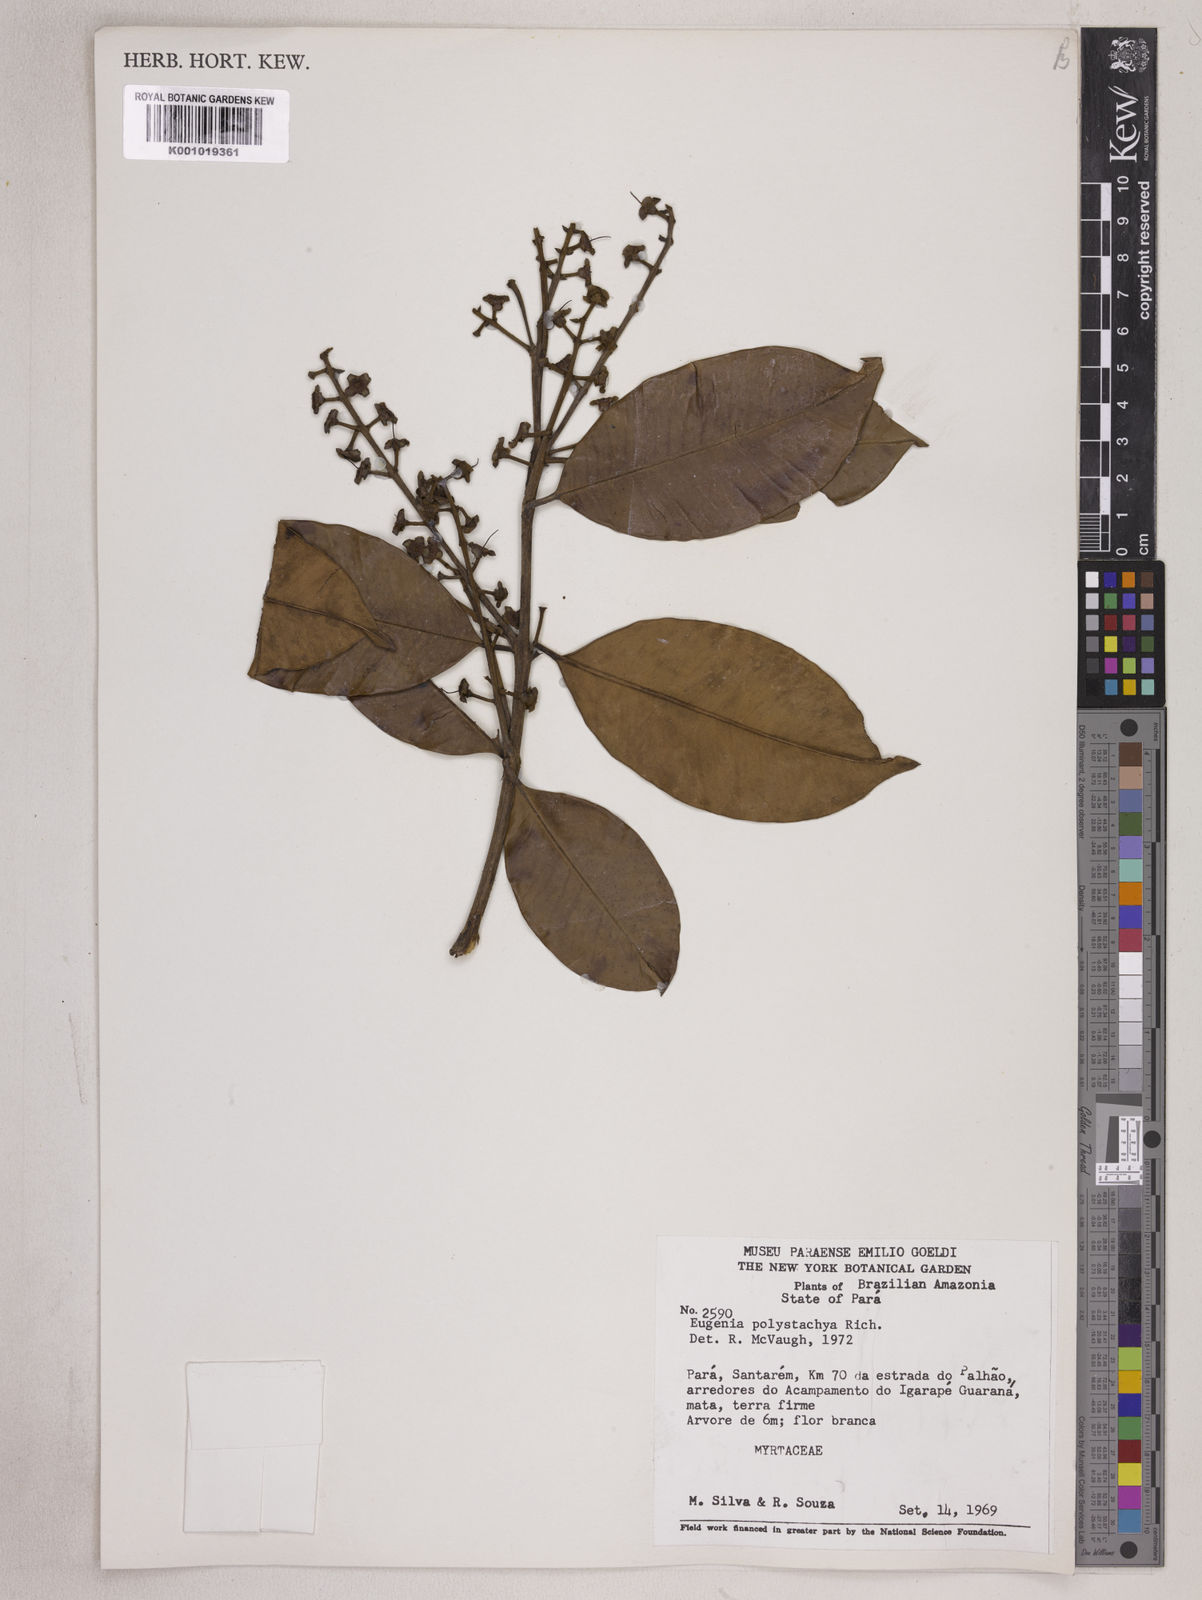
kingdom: Plantae
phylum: Tracheophyta
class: Magnoliopsida
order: Myrtales
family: Myrtaceae
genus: Eugenia
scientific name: Eugenia polystachya
